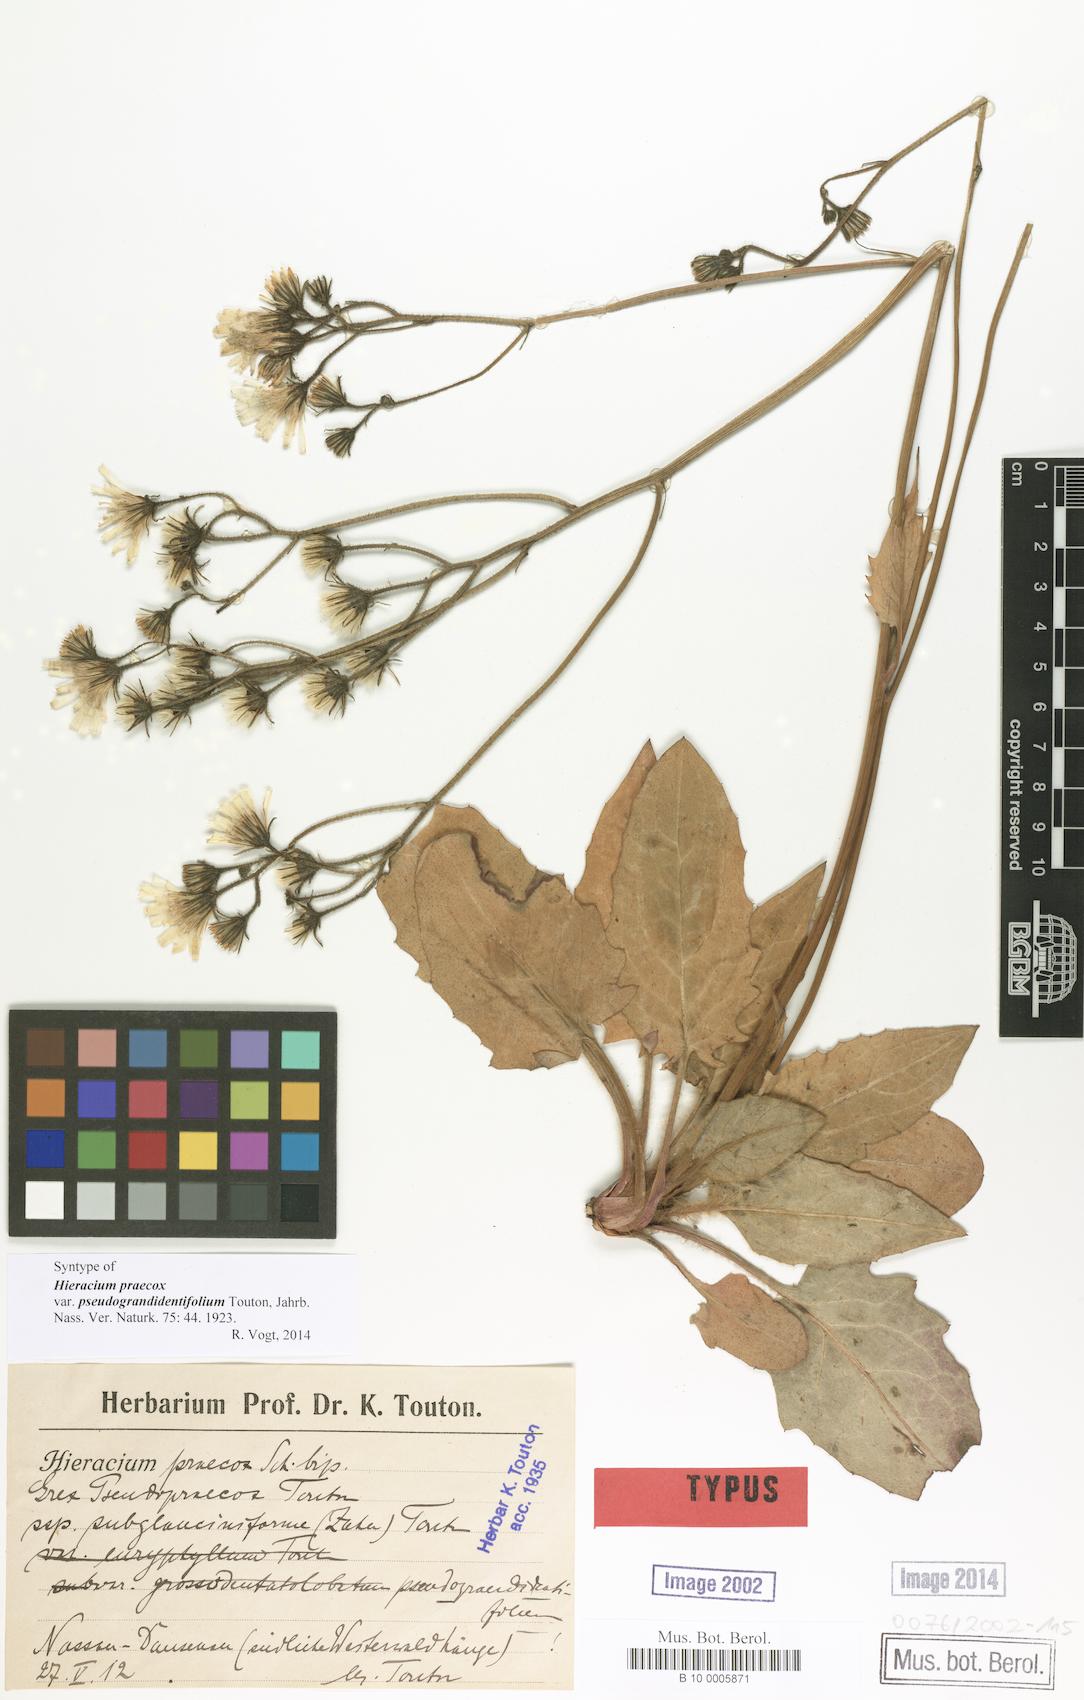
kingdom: Plantae
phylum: Tracheophyta
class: Magnoliopsida
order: Asterales
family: Asteraceae
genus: Hieracium
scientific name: Hieracium praecox
